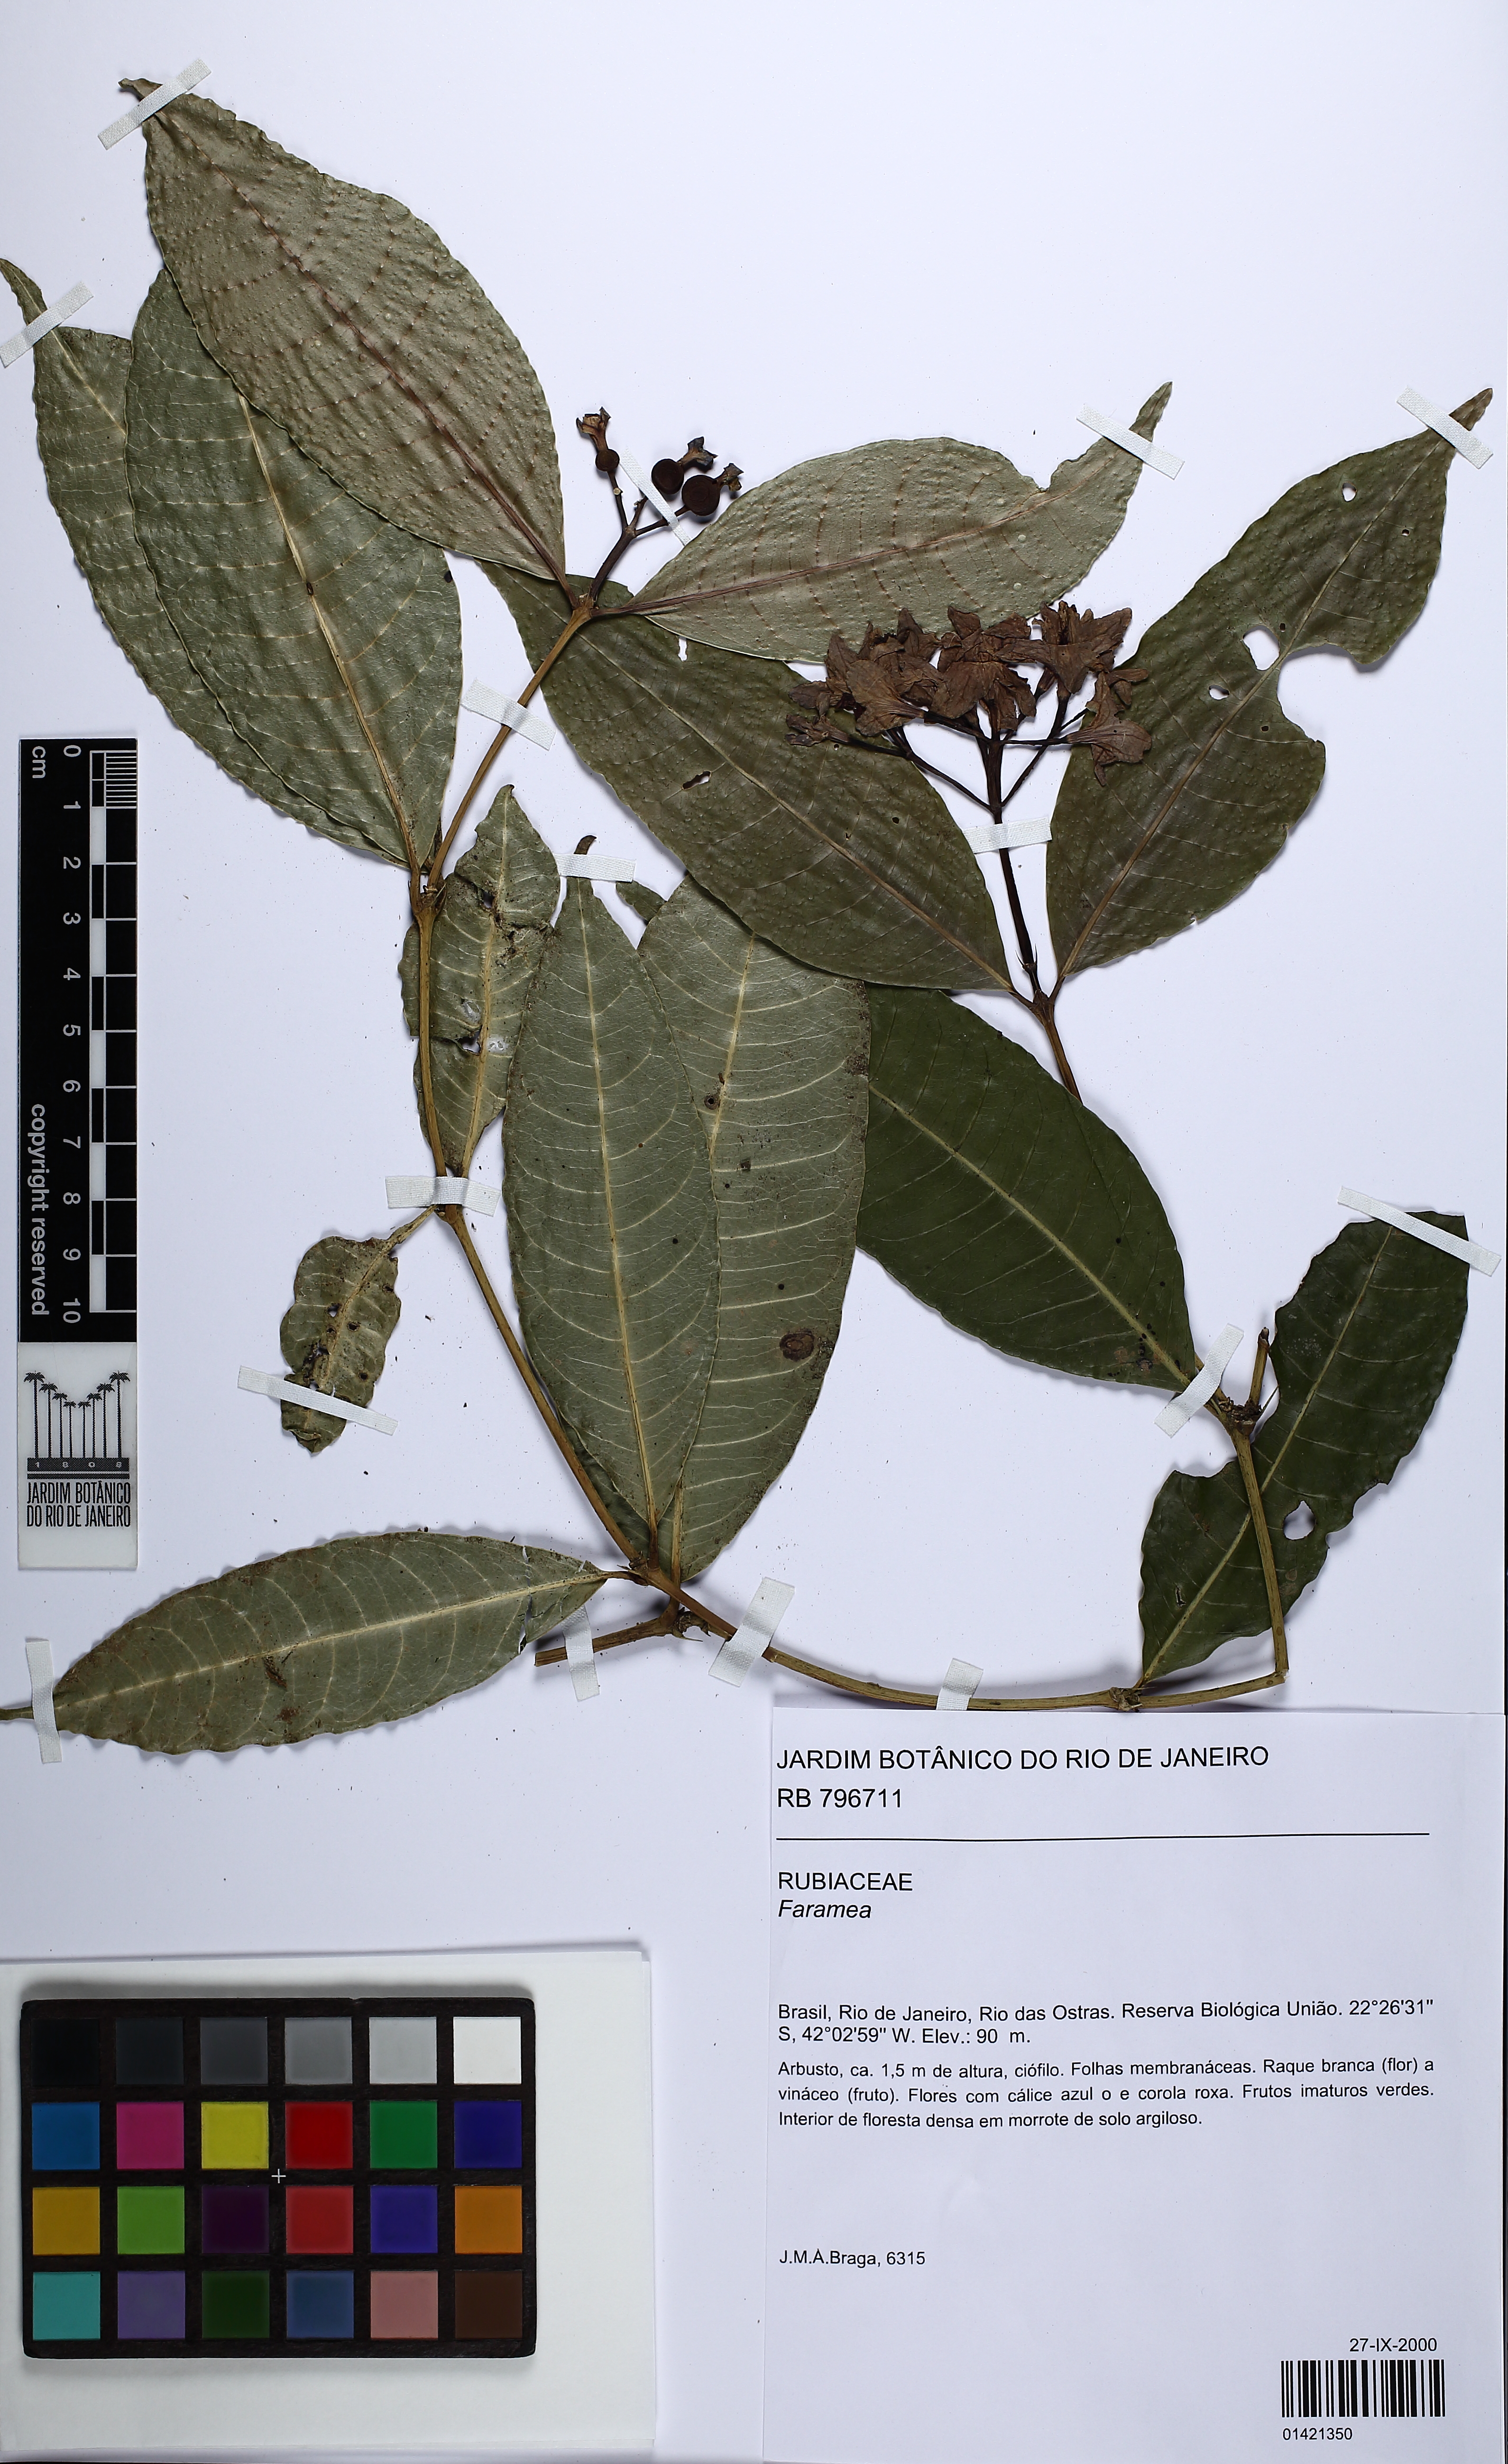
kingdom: Plantae
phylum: Tracheophyta
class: Magnoliopsida
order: Gentianales
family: Rubiaceae
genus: Faramea
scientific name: Faramea
